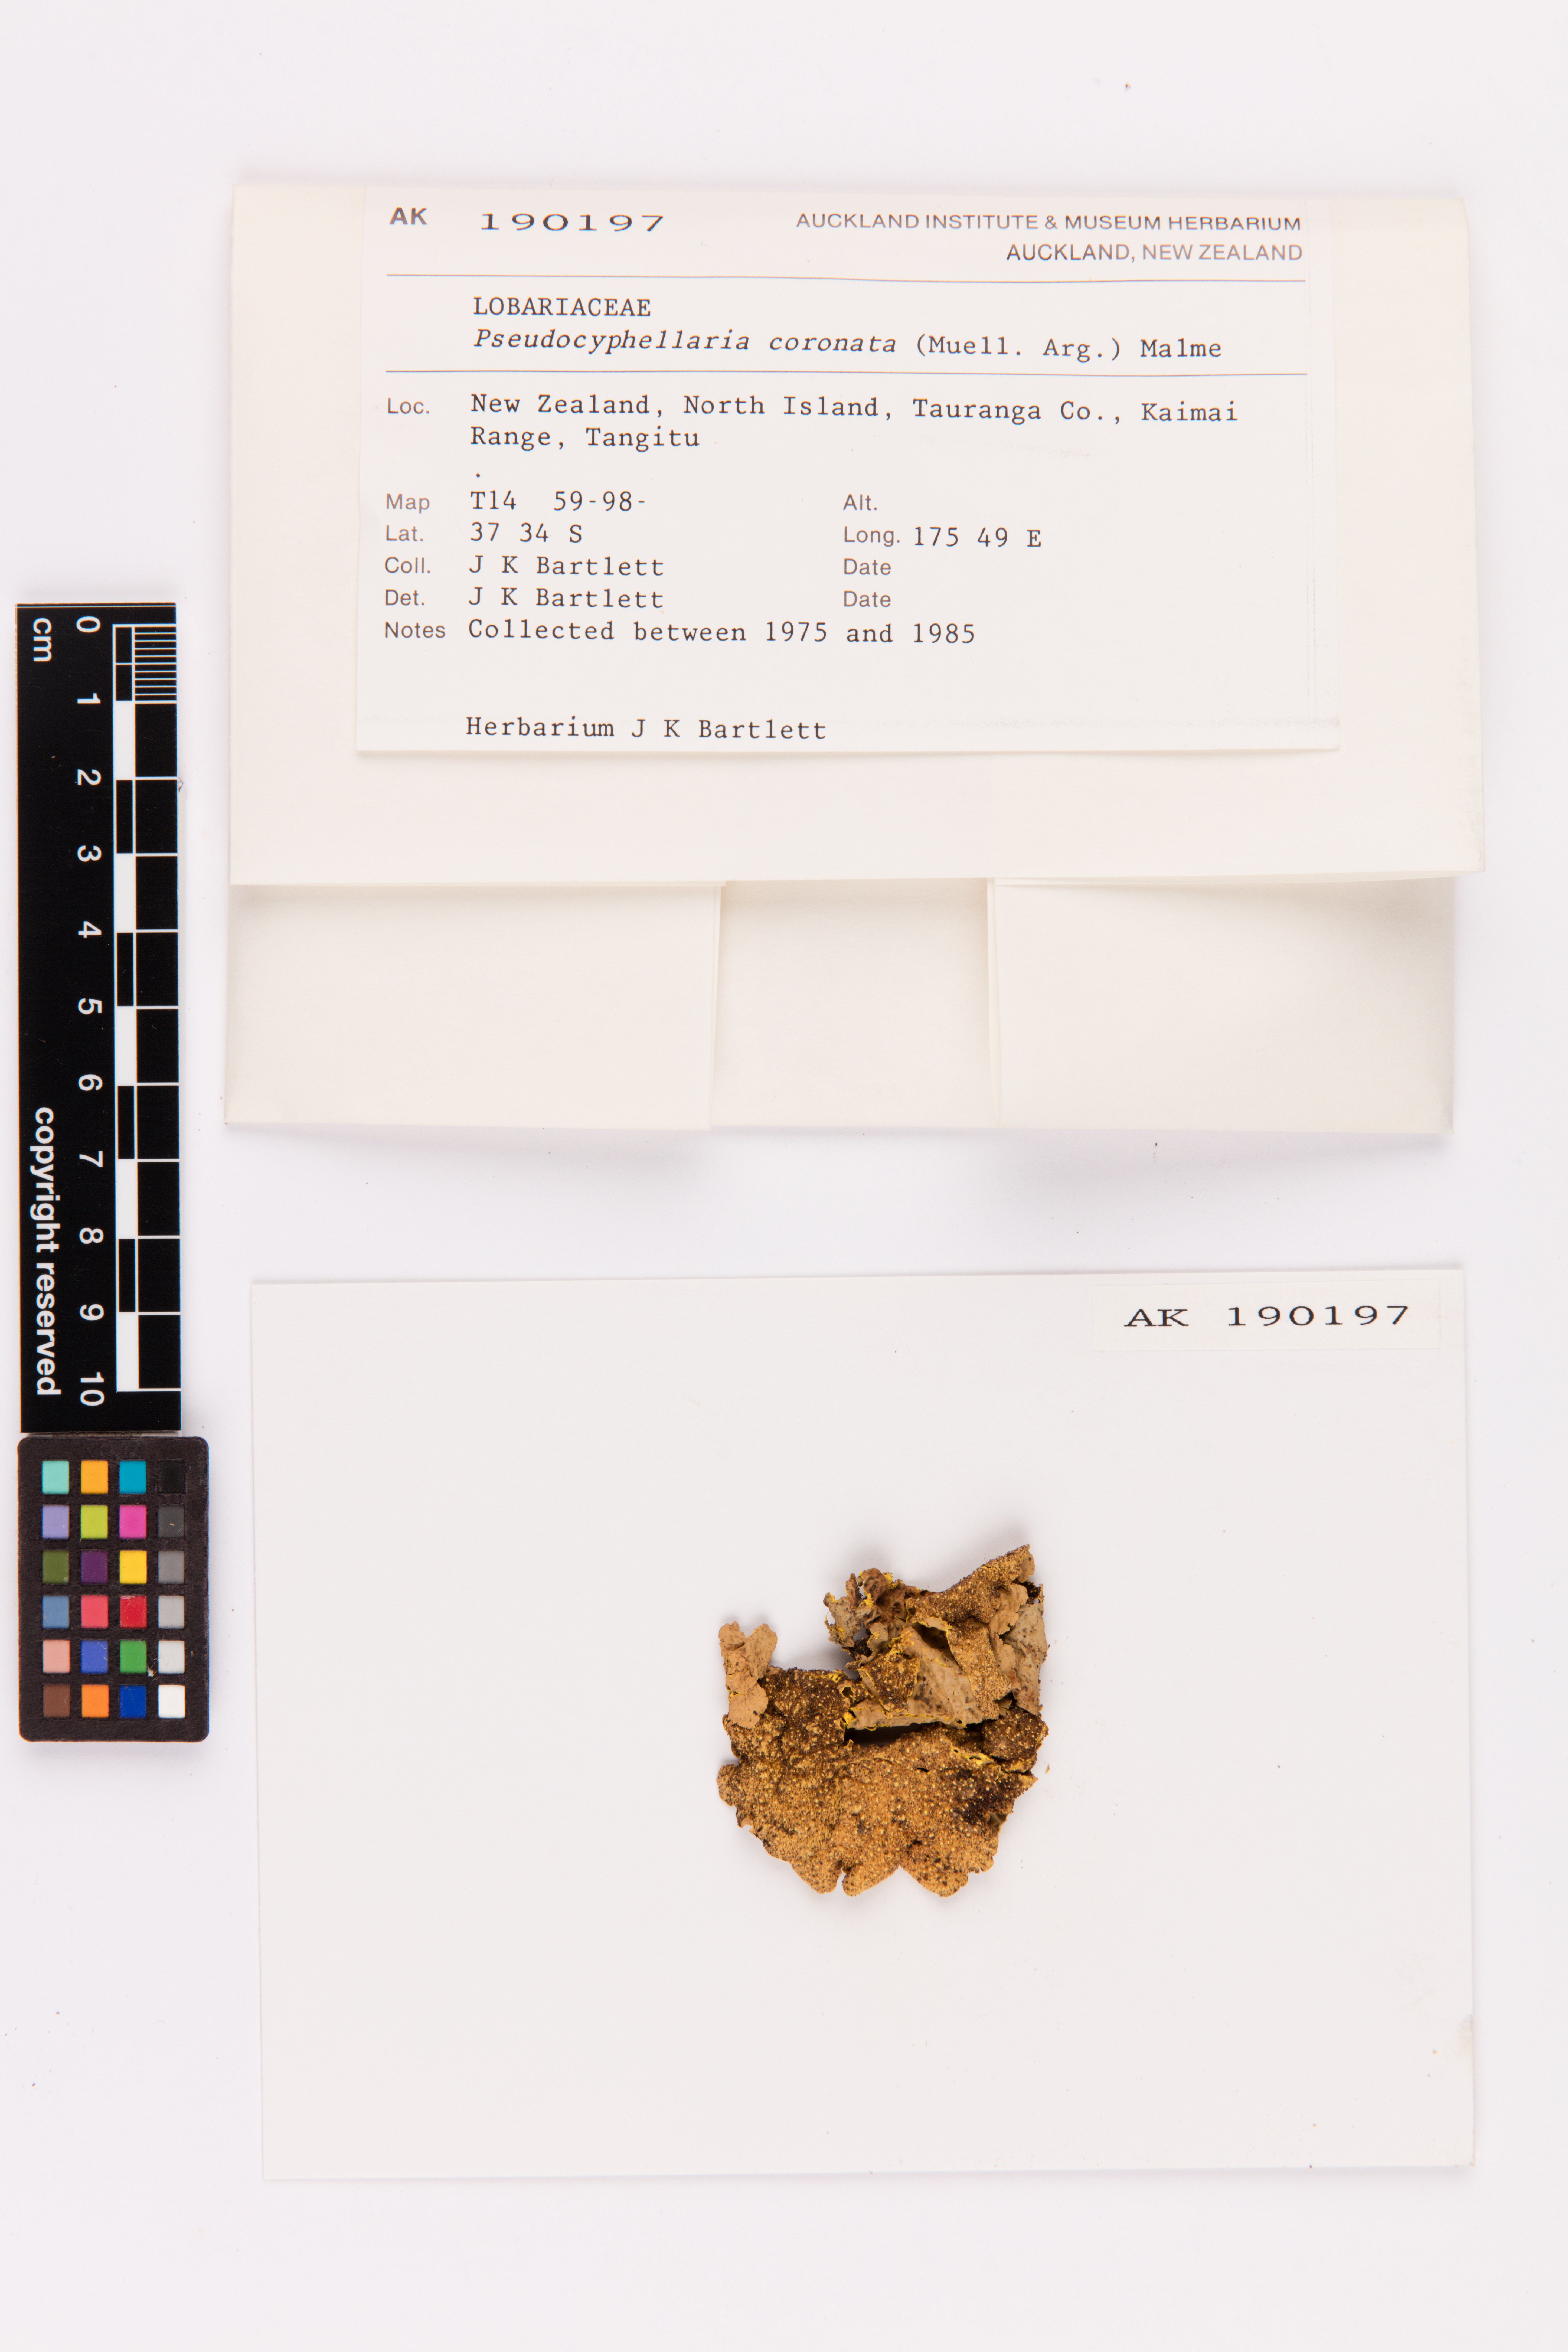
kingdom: Fungi
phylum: Ascomycota
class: Lecanoromycetes
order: Peltigerales
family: Lobariaceae
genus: Yarrumia
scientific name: Yarrumia coronata
